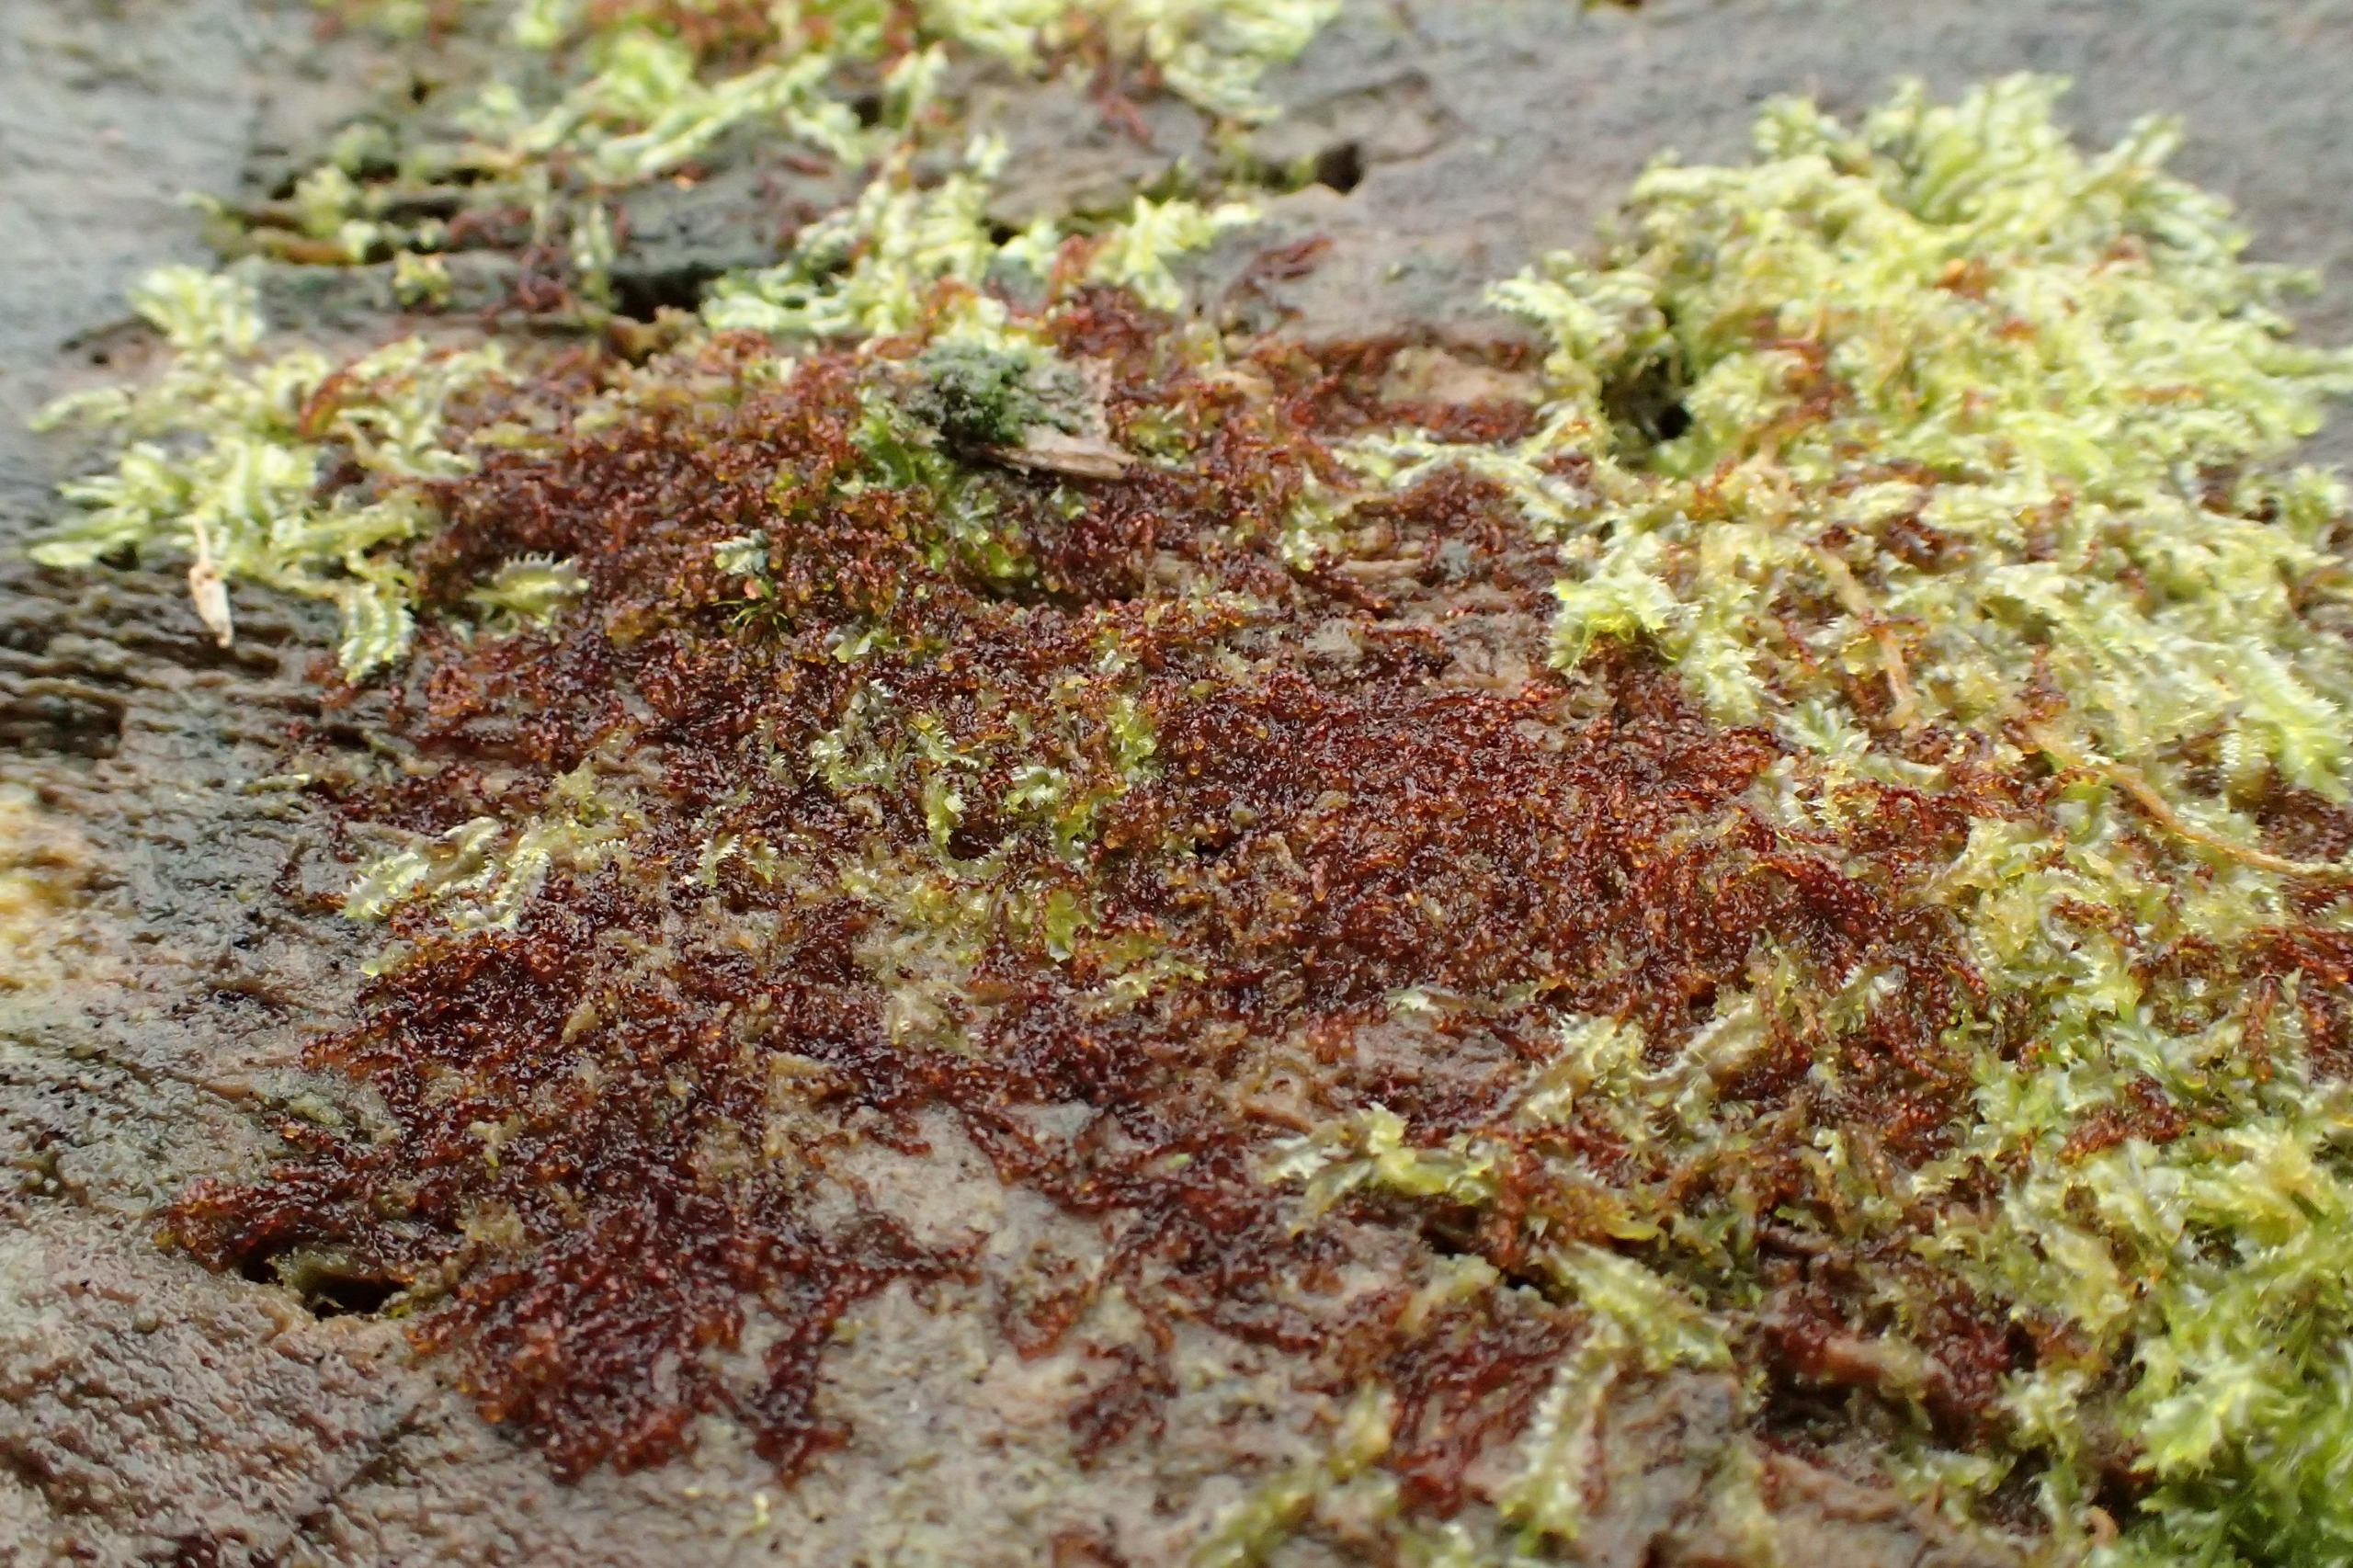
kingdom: Plantae
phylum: Marchantiophyta
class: Jungermanniopsida
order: Jungermanniales
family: Cephaloziaceae
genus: Nowellia
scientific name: Nowellia curvifolia
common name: Krumbladet stødmos
